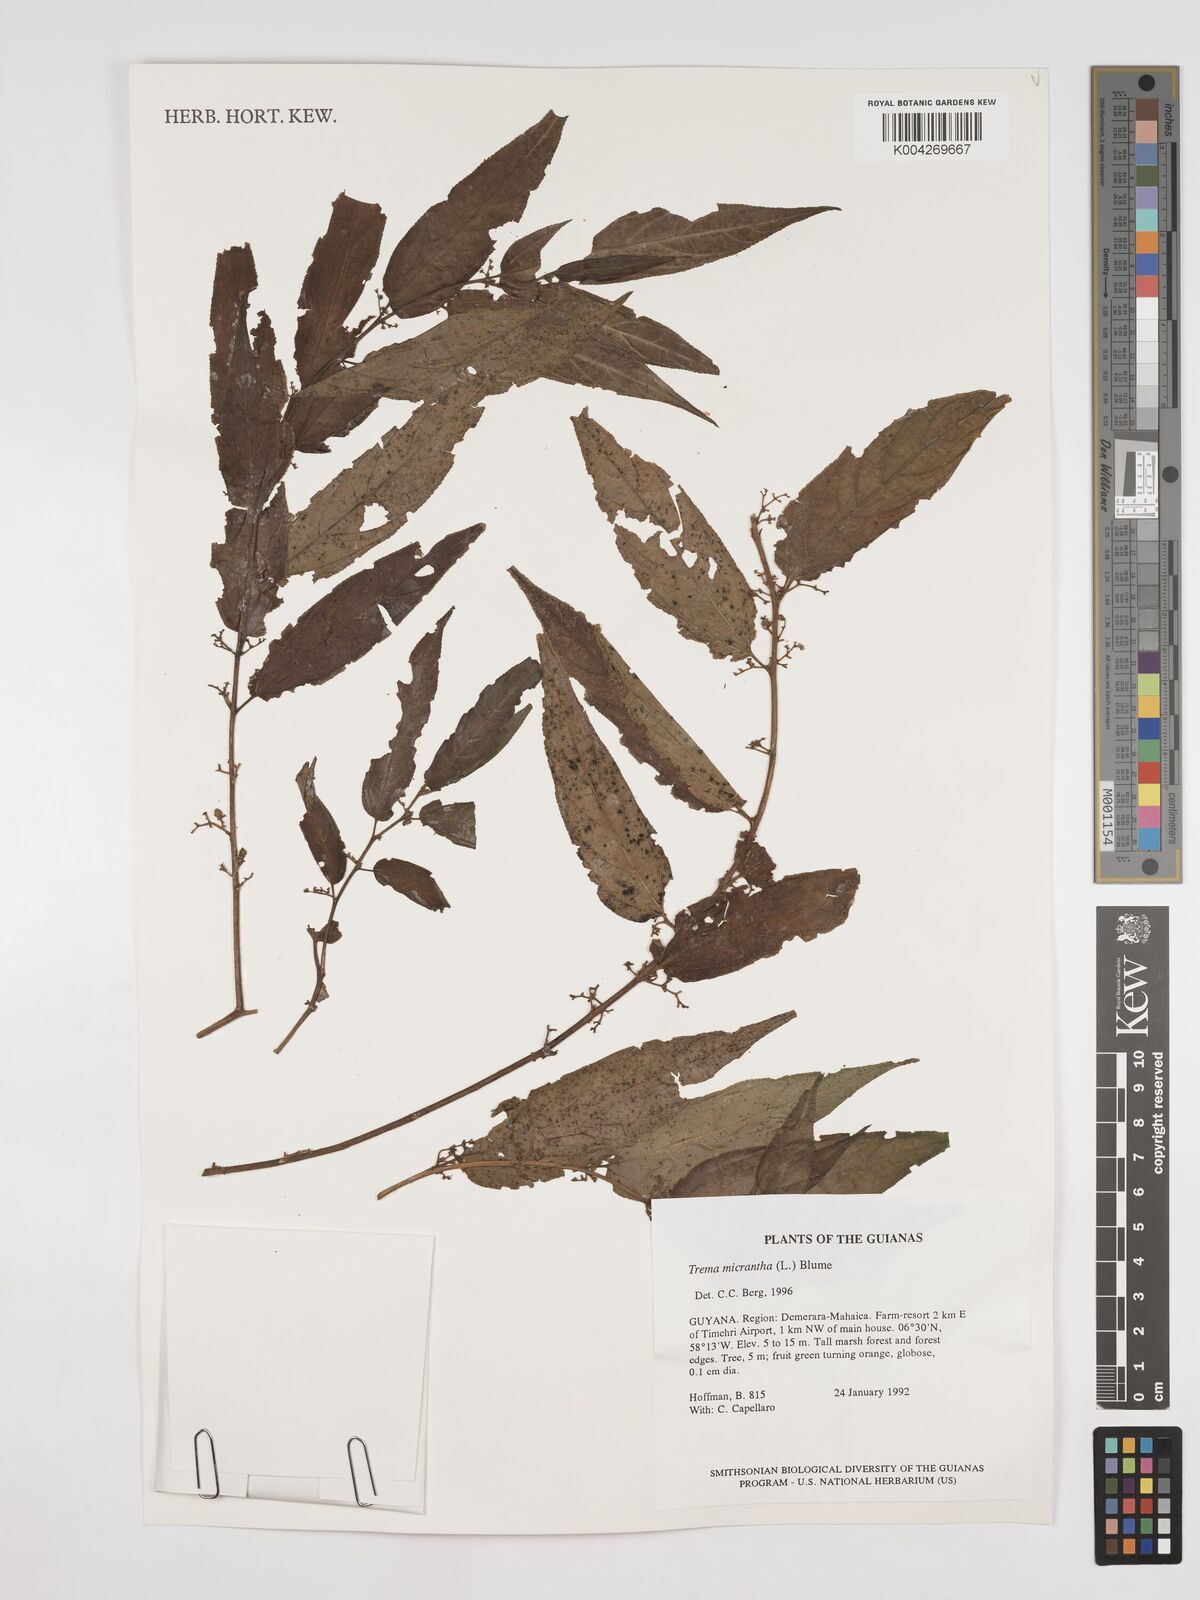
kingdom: Plantae
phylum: Tracheophyta
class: Magnoliopsida
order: Rosales
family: Cannabaceae
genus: Trema
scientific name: Trema micranthum
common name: Jamaican nettletree
